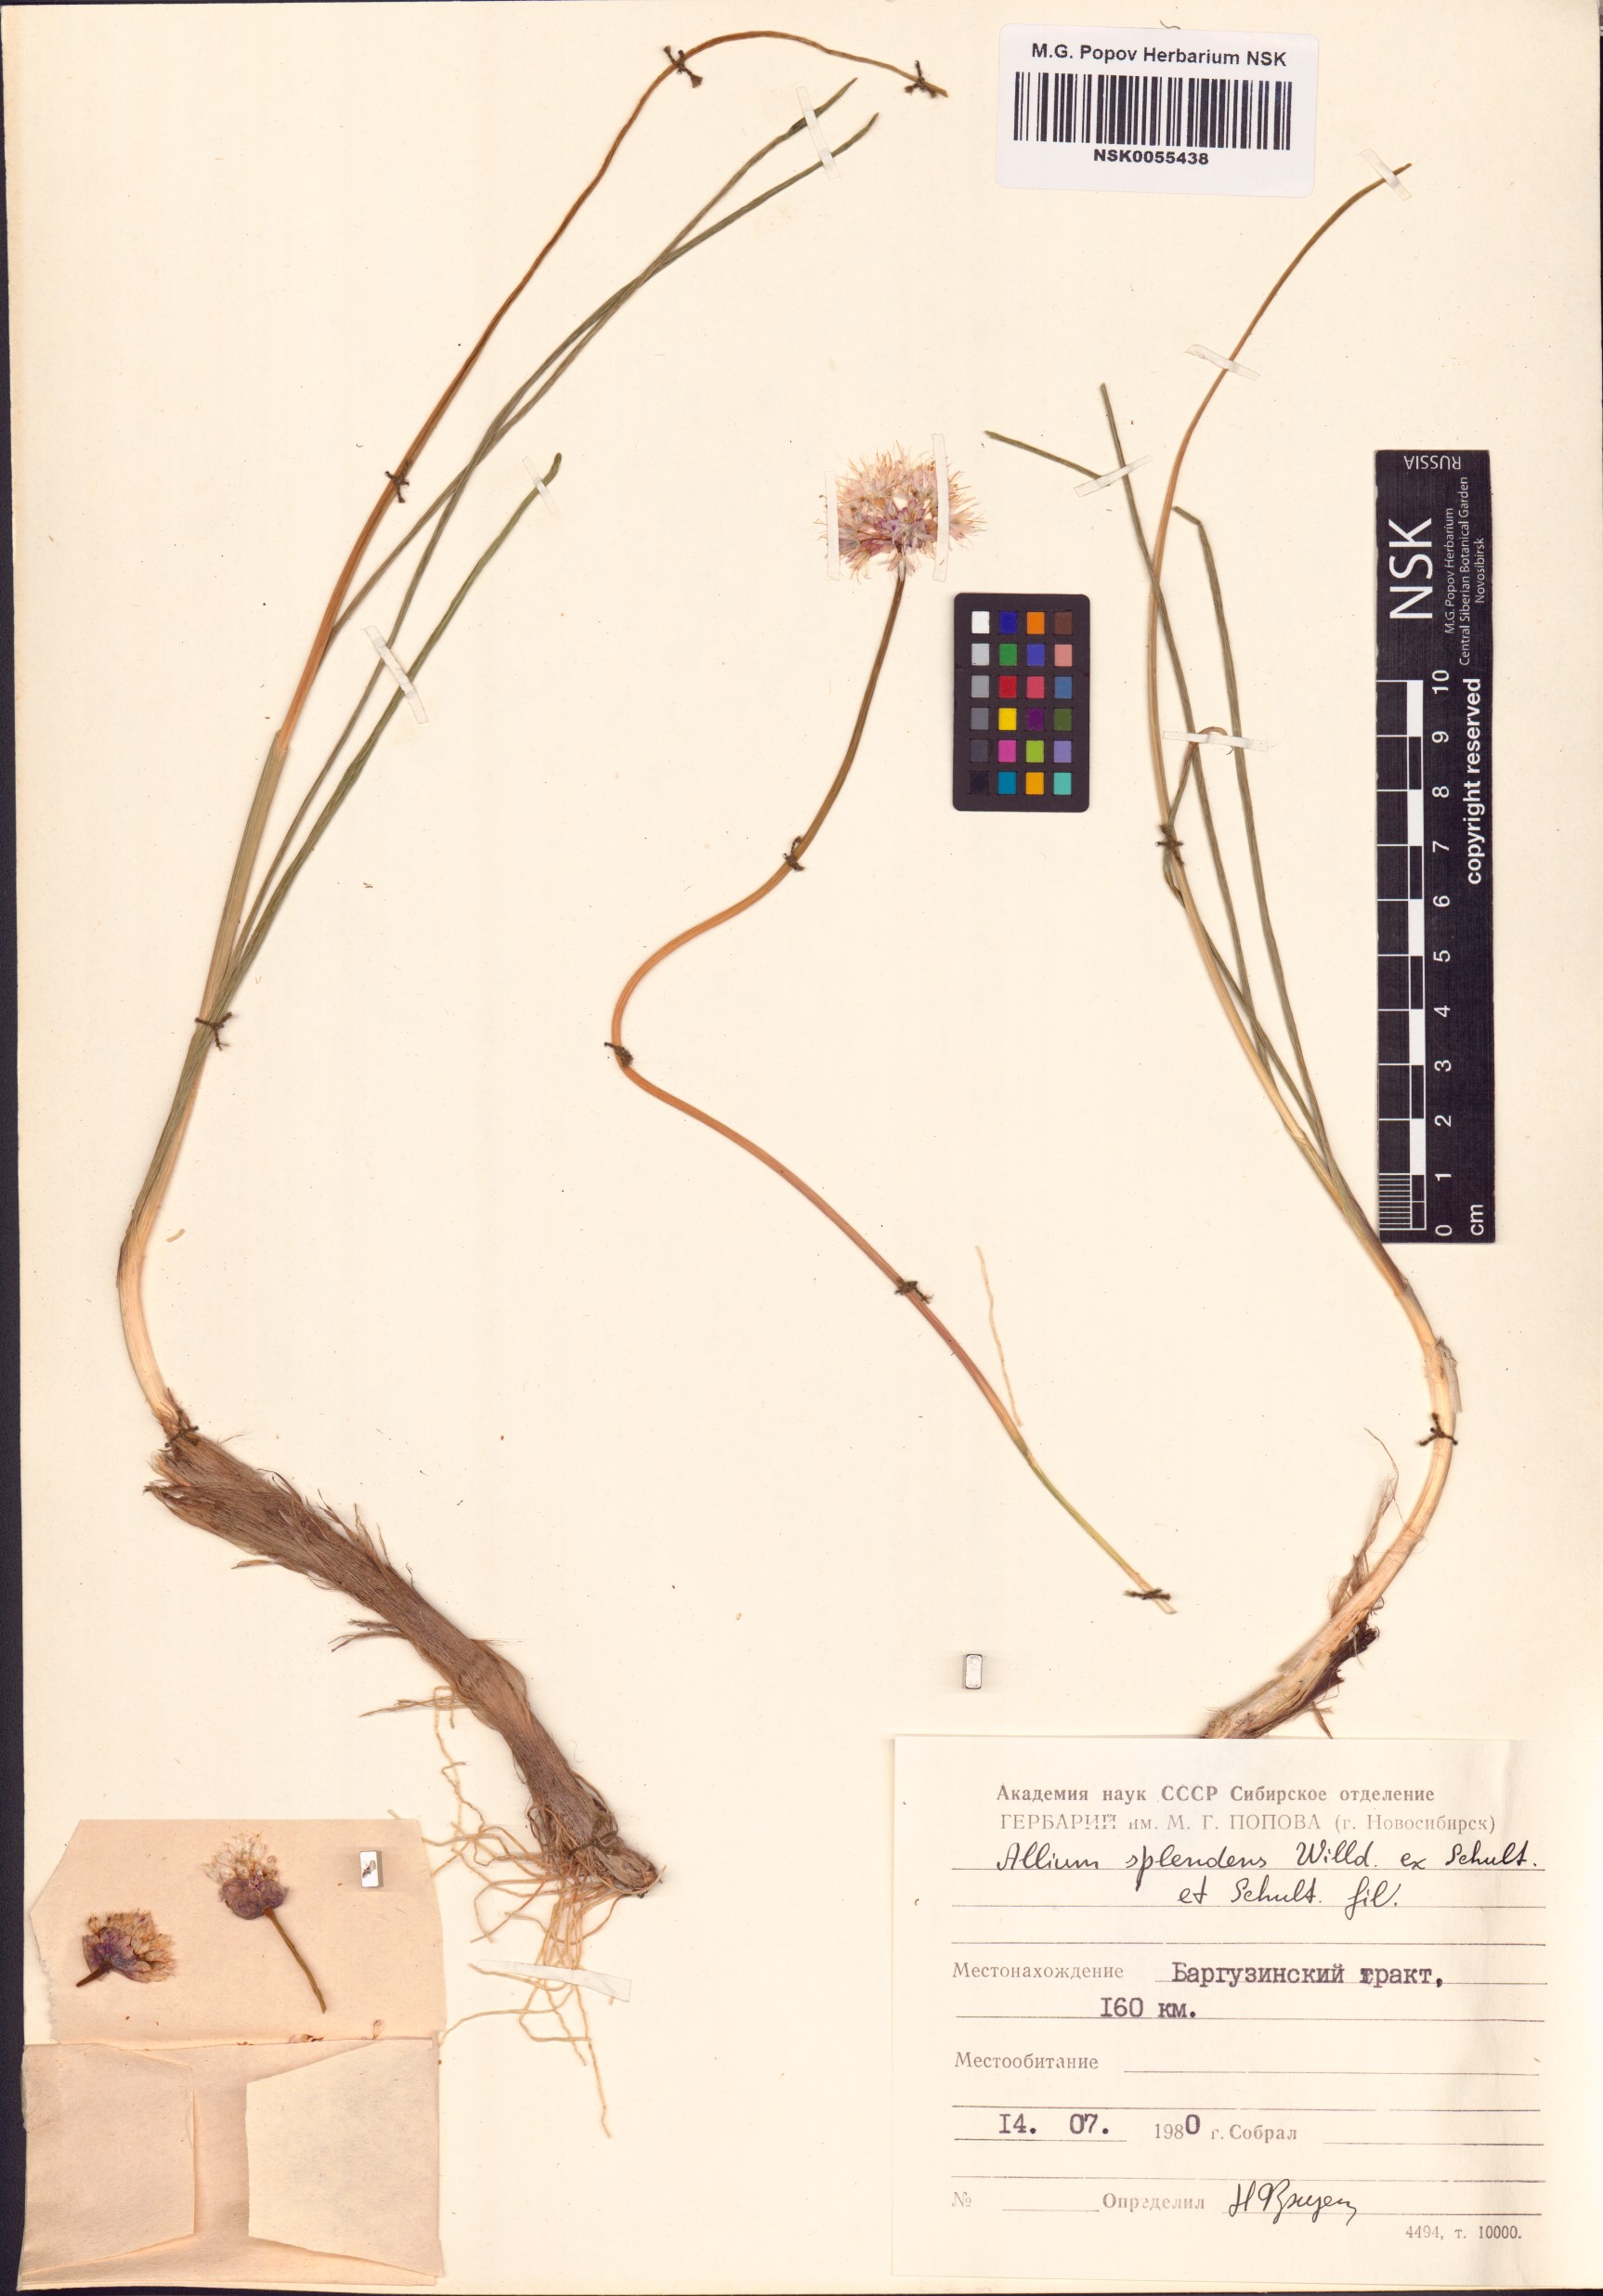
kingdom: Plantae
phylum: Tracheophyta
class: Liliopsida
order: Asparagales
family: Amaryllidaceae
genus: Allium
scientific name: Allium splendens
